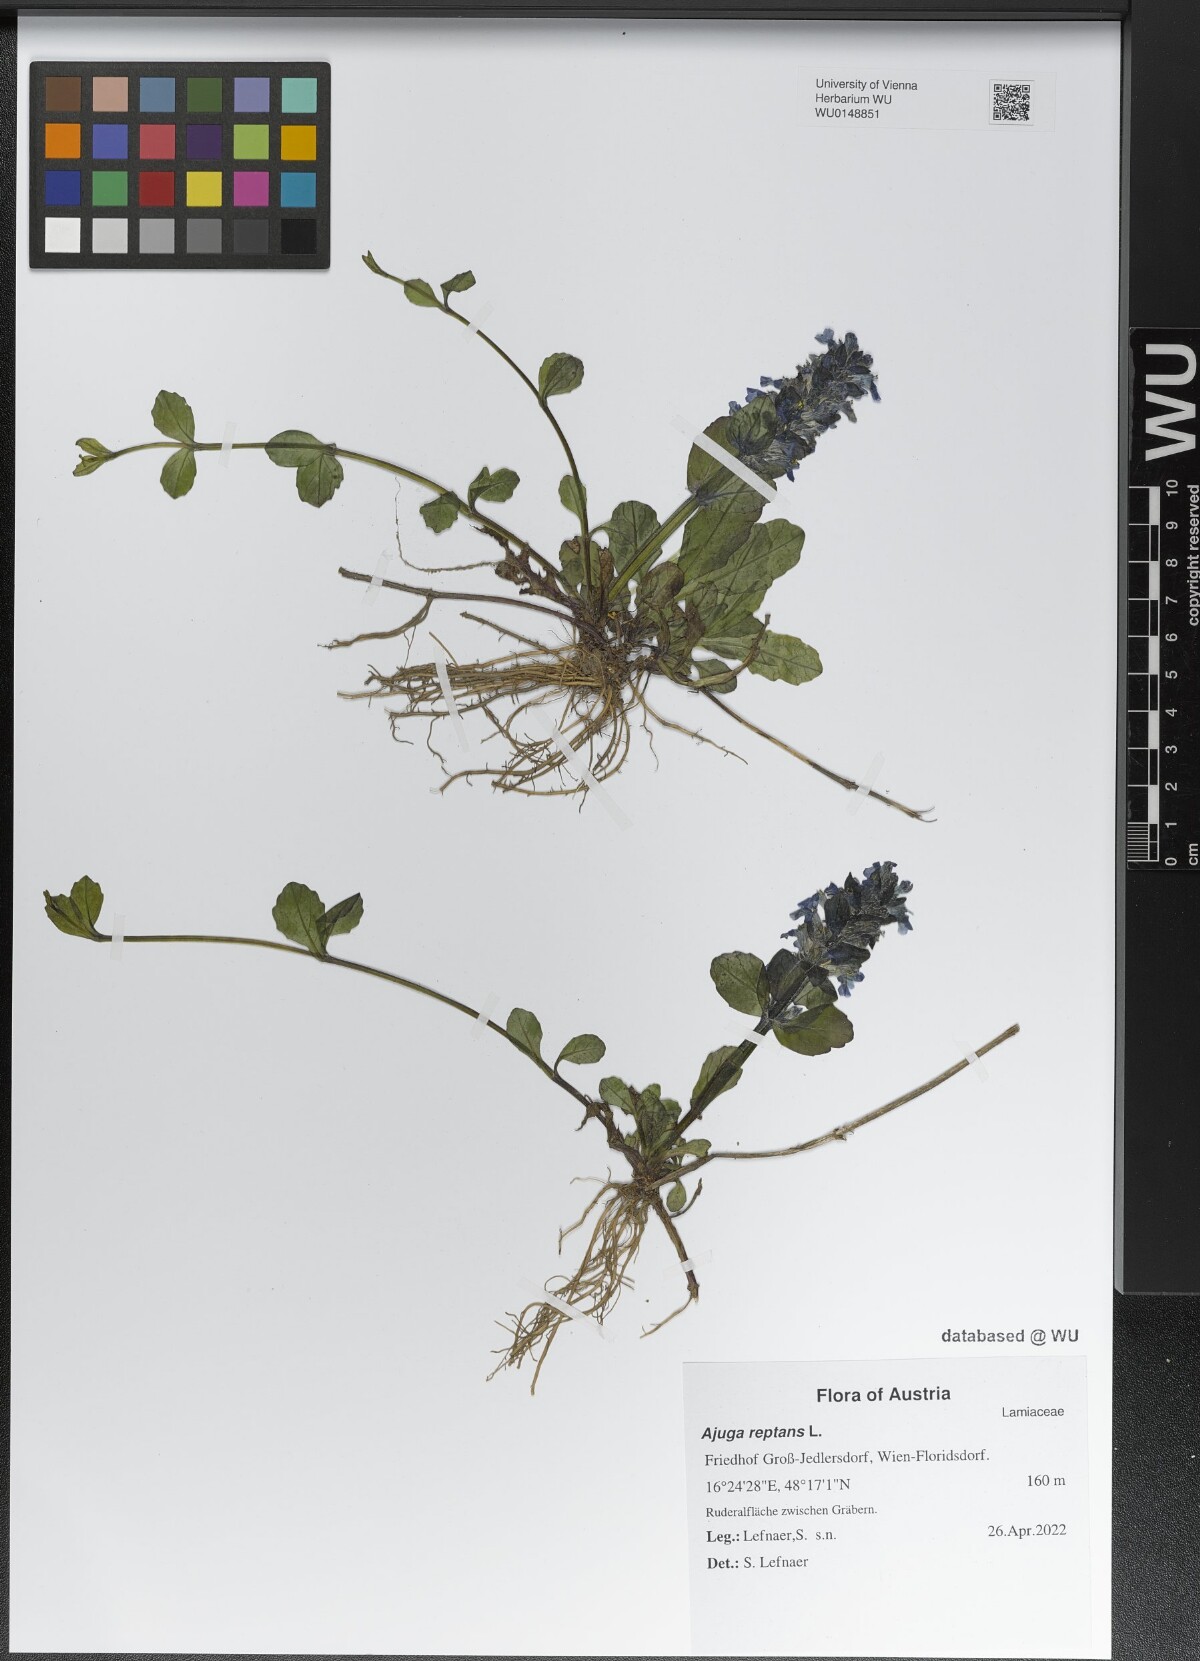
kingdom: Plantae
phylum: Tracheophyta
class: Magnoliopsida
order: Lamiales
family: Lamiaceae
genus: Ajuga
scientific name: Ajuga reptans
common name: Bugle
